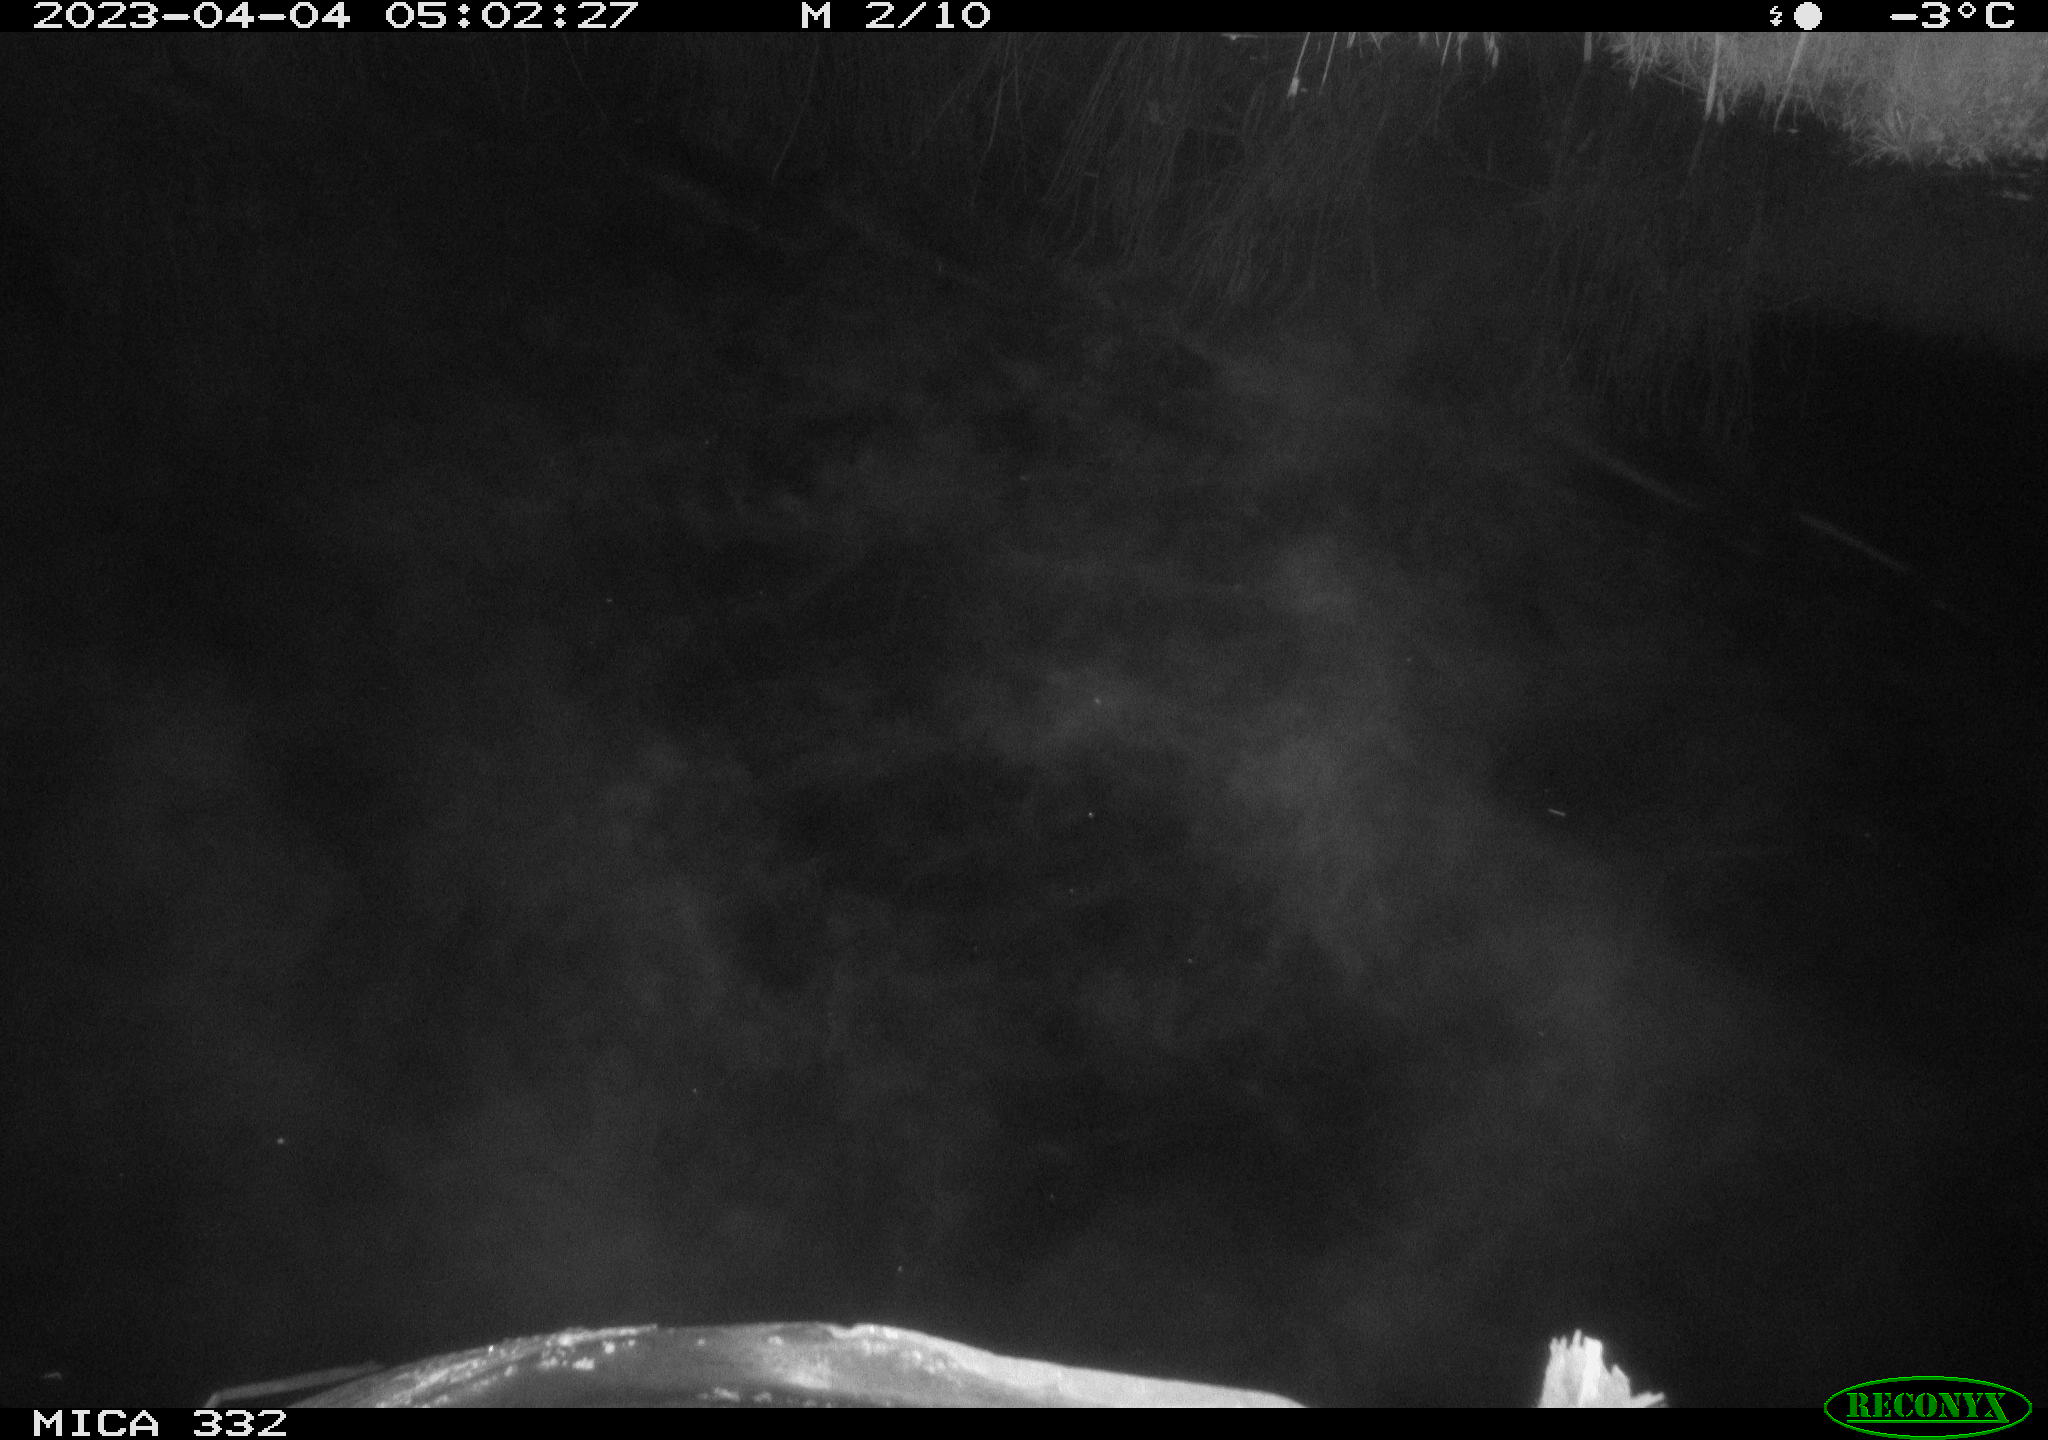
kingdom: Animalia
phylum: Chordata
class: Aves
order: Anseriformes
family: Anatidae
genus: Anas
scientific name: Anas platyrhynchos
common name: Mallard
